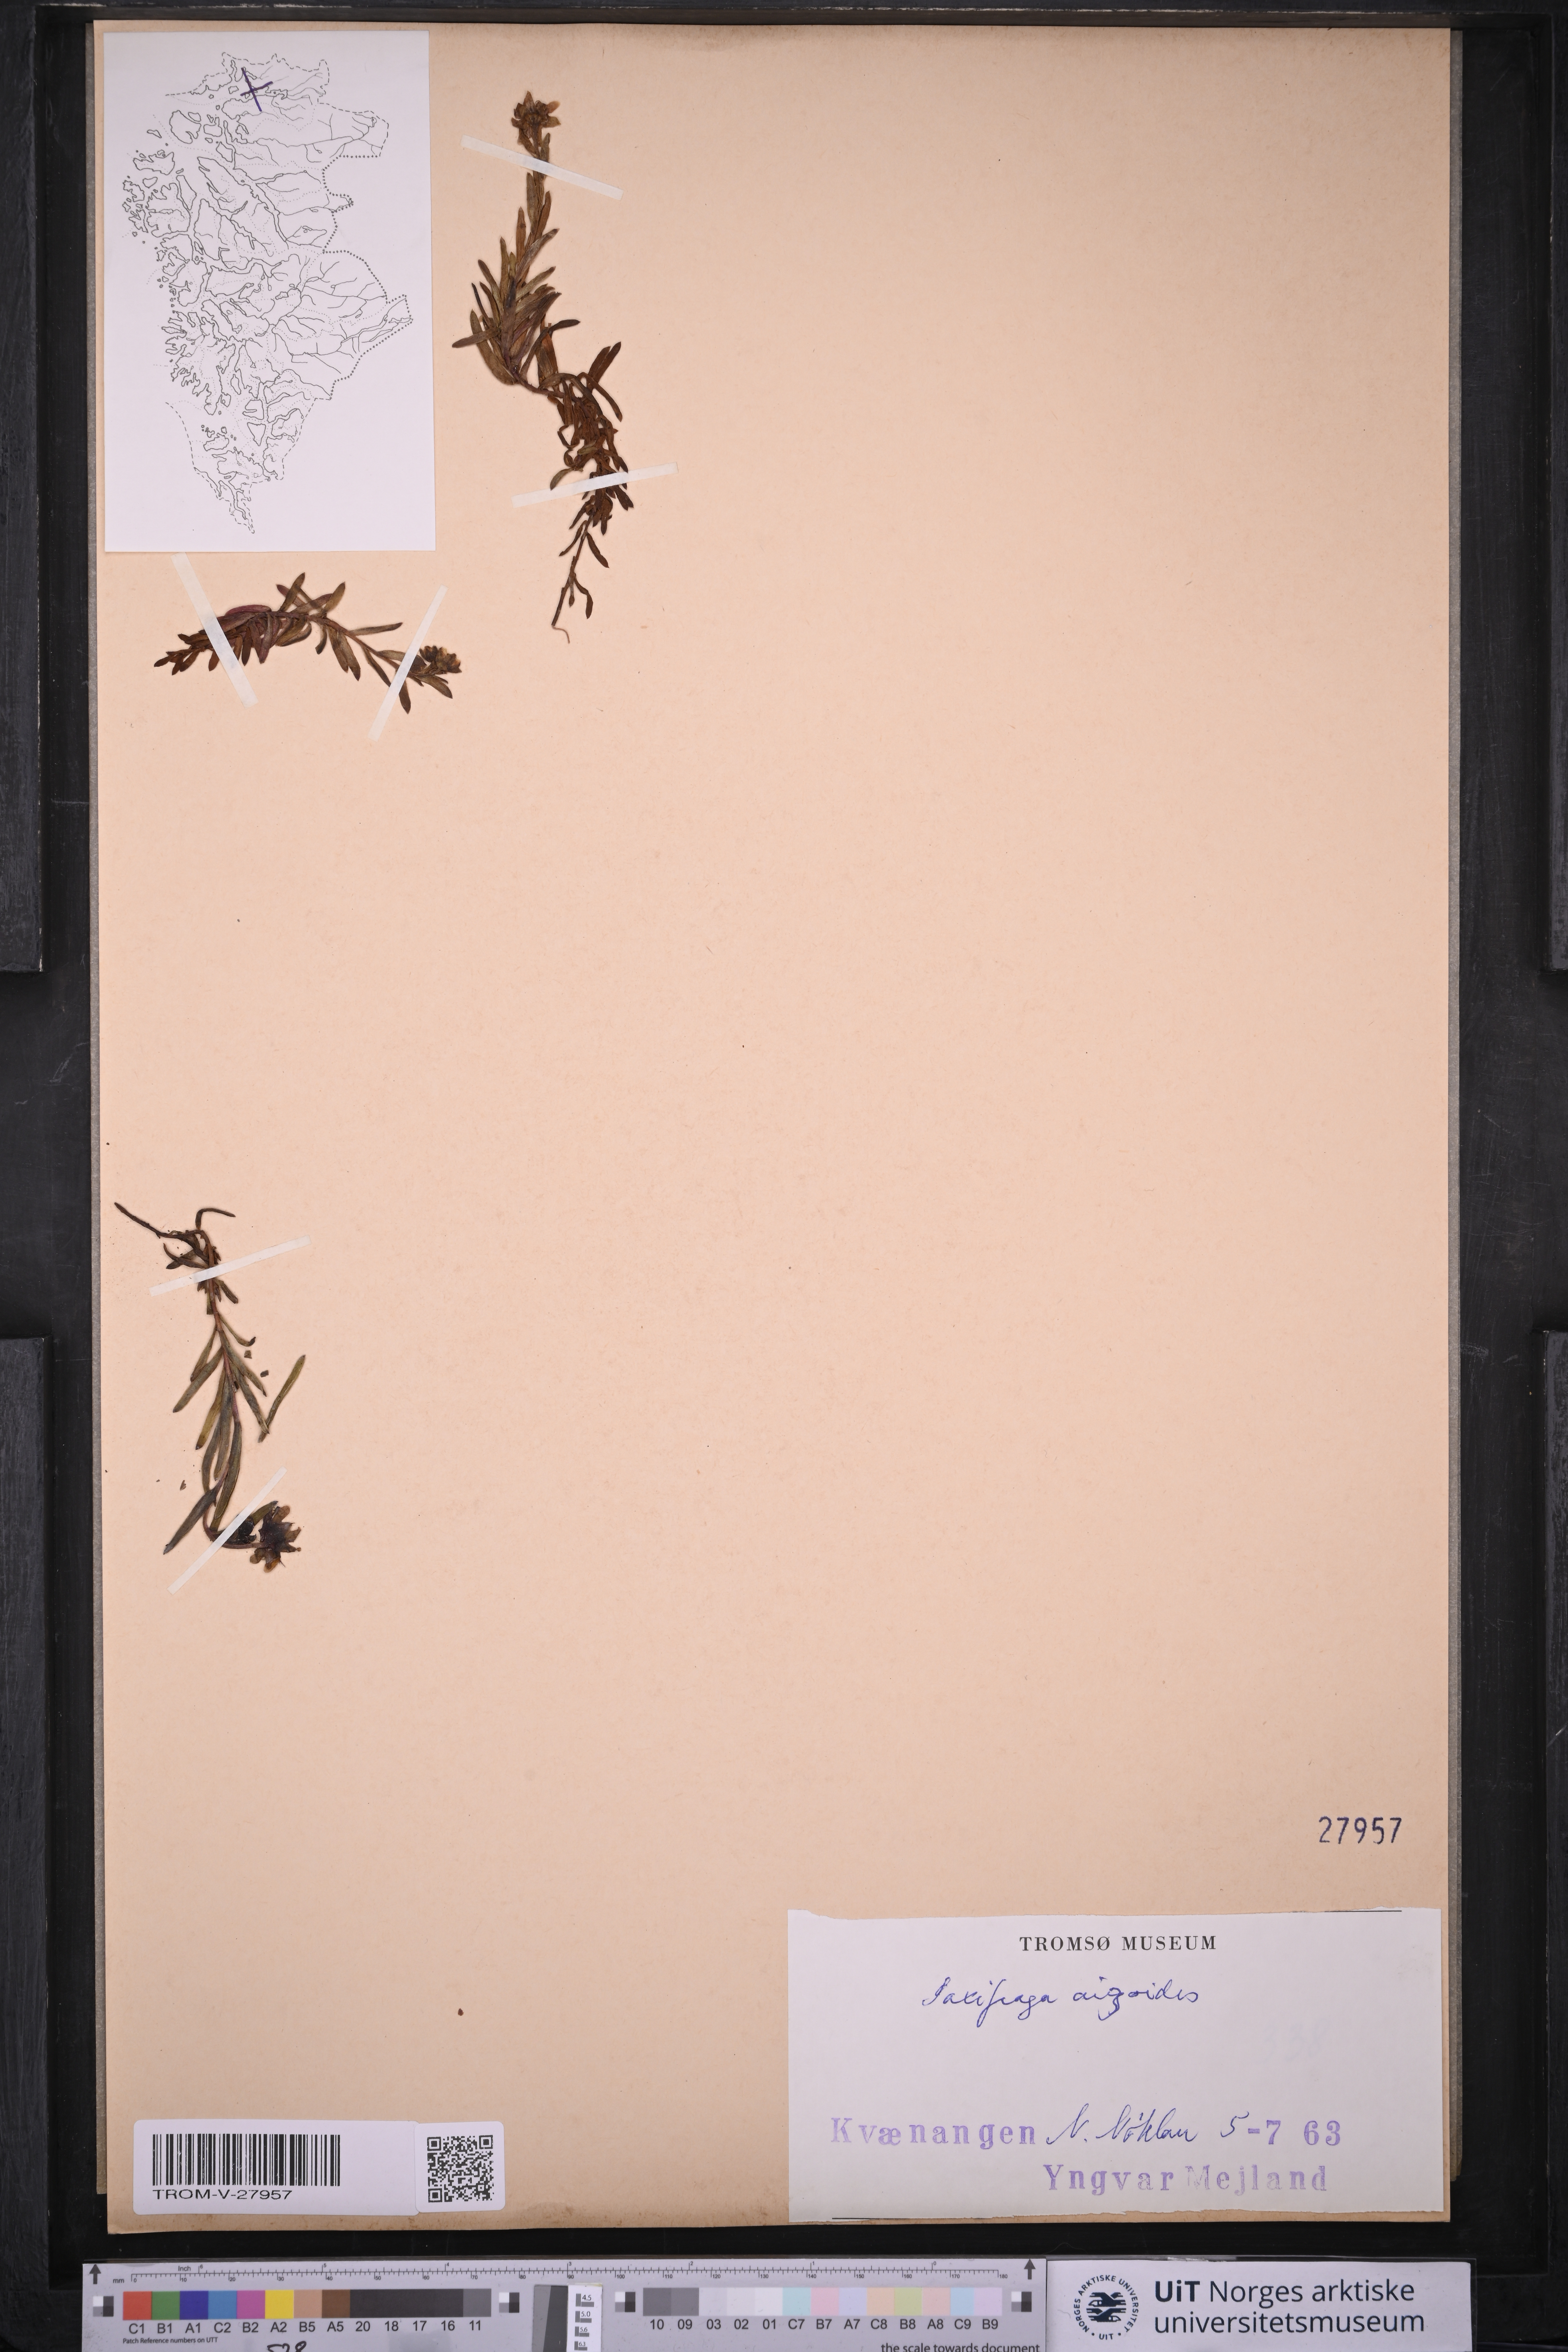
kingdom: Plantae
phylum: Tracheophyta
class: Magnoliopsida
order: Saxifragales
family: Saxifragaceae
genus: Saxifraga
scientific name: Saxifraga aizoides
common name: Yellow mountain saxifrage
